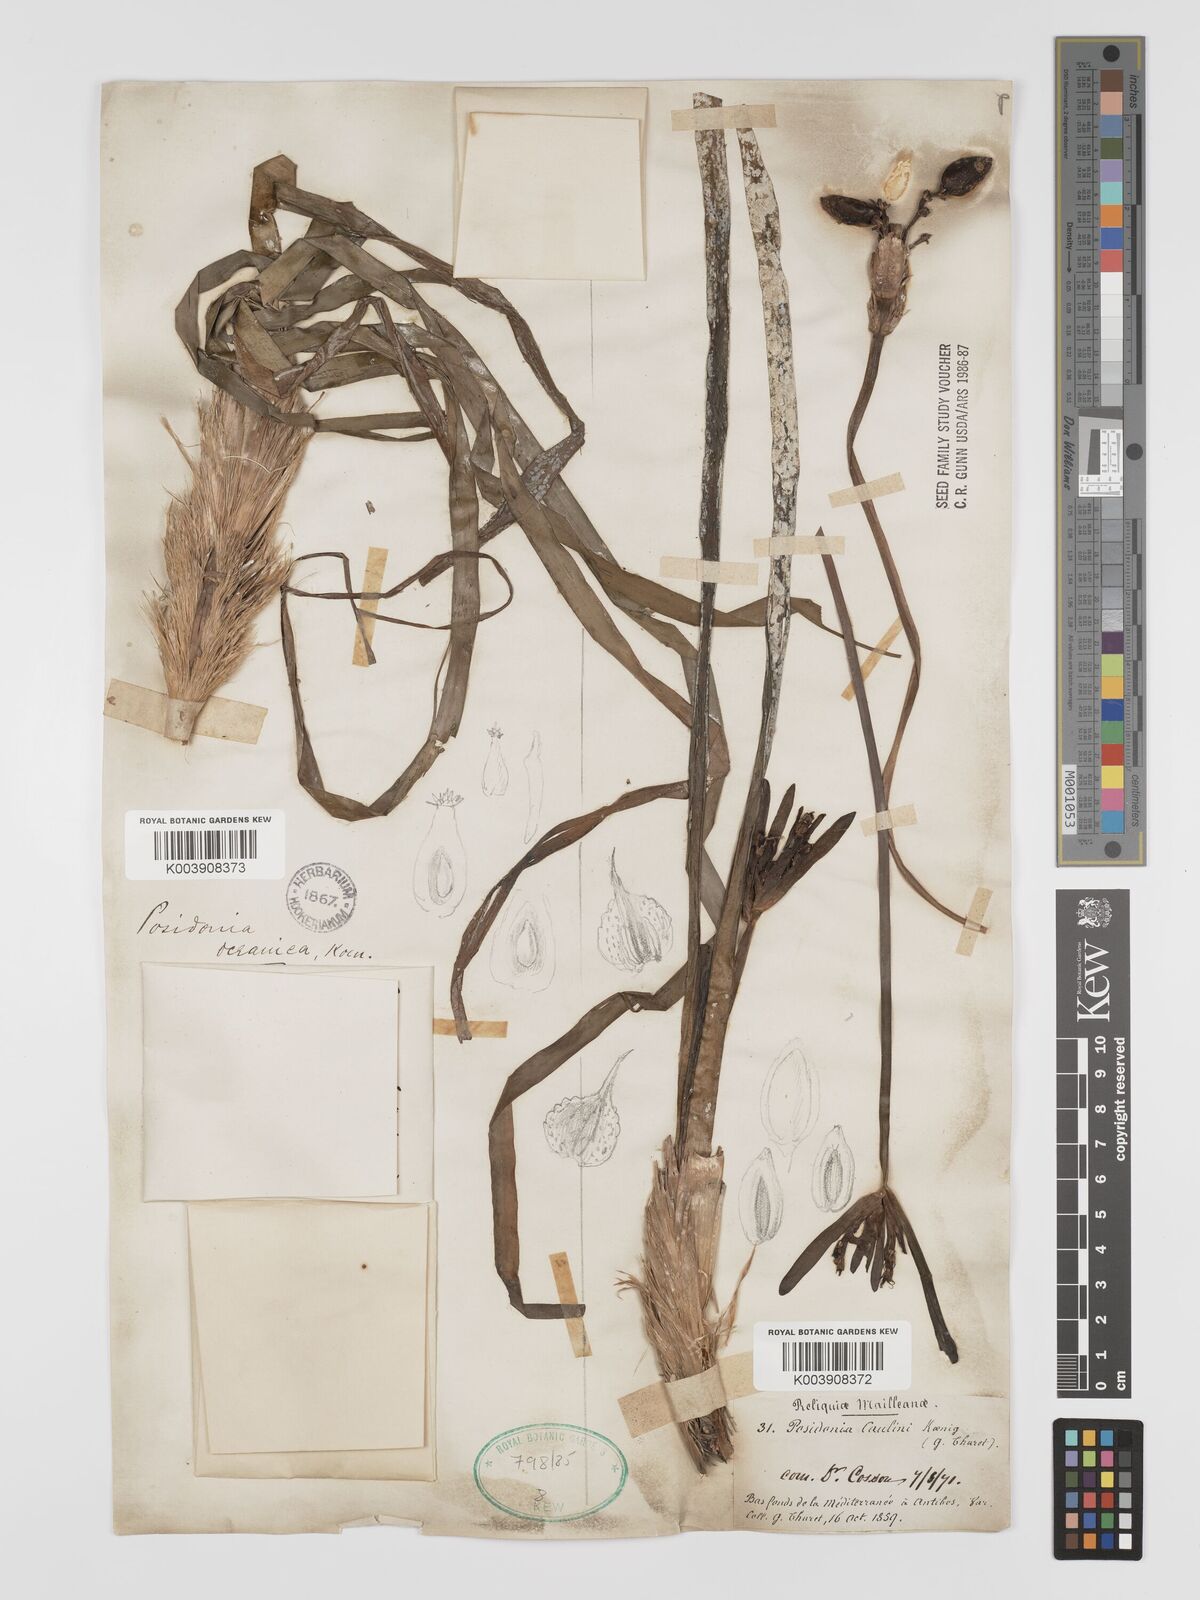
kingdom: Plantae
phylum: Tracheophyta
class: Liliopsida
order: Alismatales
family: Posidoniaceae
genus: Posidonia
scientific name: Posidonia
